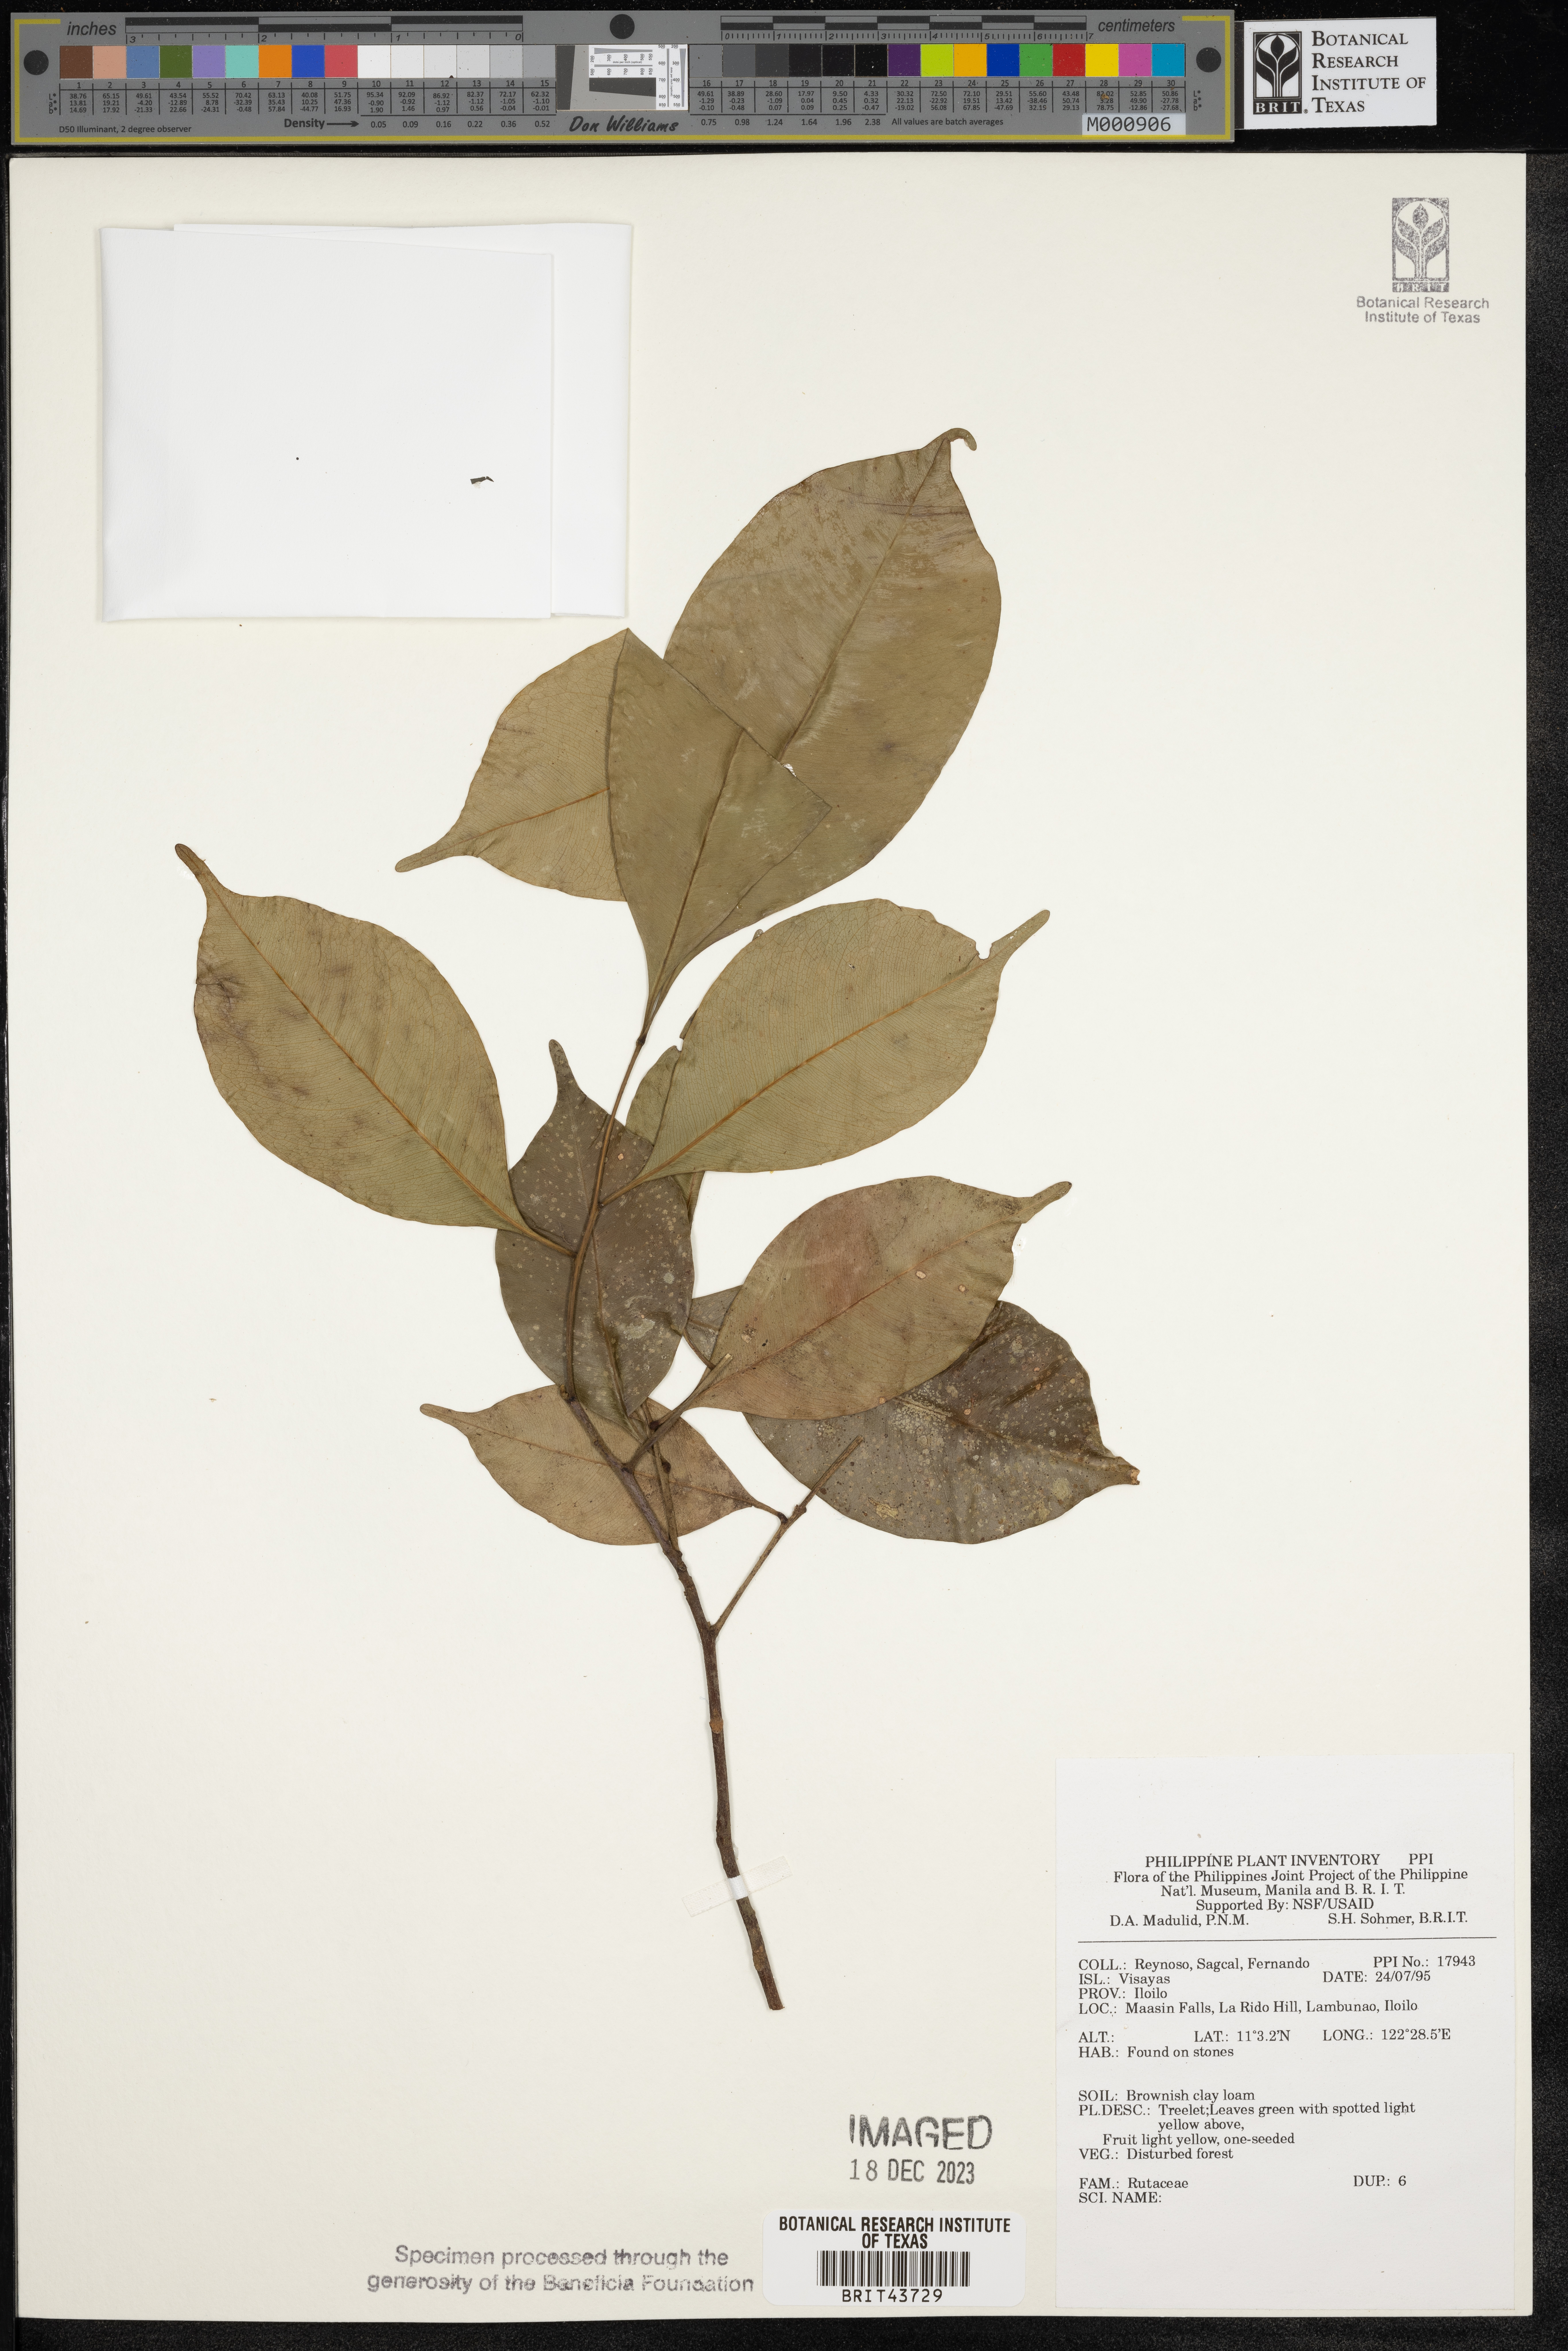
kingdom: Plantae
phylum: Tracheophyta
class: Magnoliopsida
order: Sapindales
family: Rutaceae
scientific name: Rutaceae
